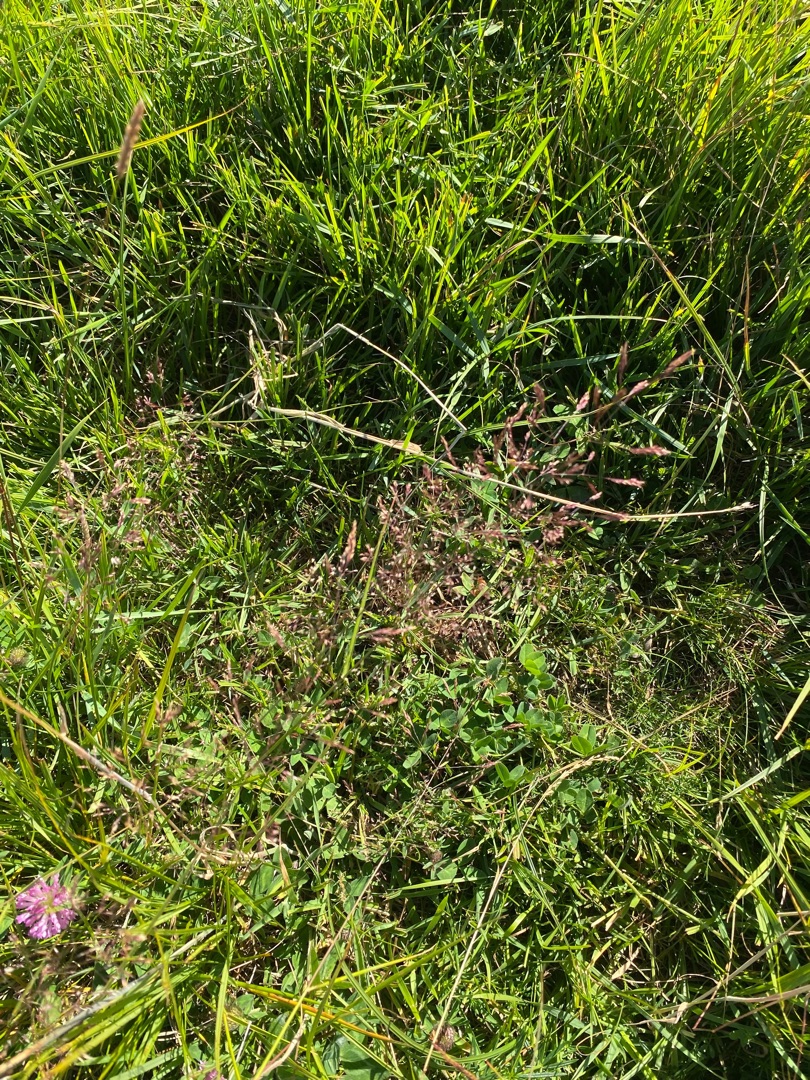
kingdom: Plantae
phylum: Tracheophyta
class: Liliopsida
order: Poales
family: Poaceae
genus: Agrostis
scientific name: Agrostis capillaris
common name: Almindelig hvene
